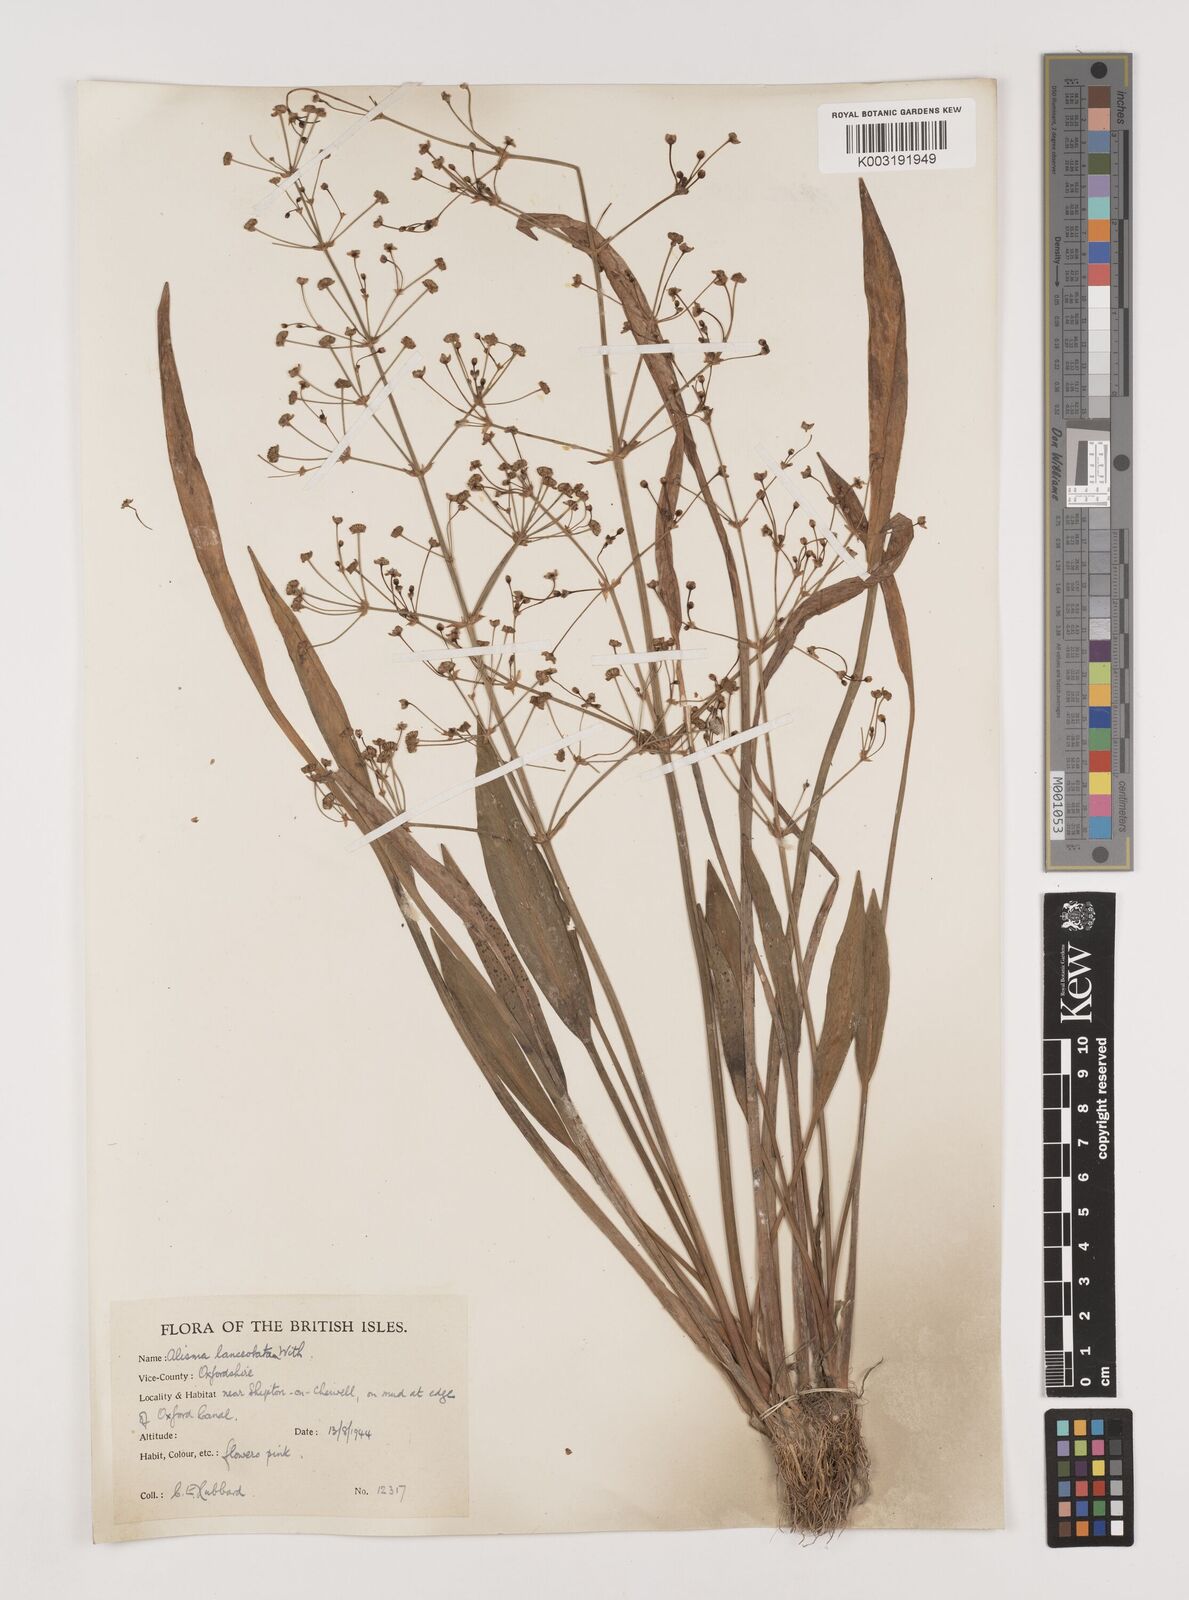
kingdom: Plantae
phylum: Tracheophyta
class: Liliopsida
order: Alismatales
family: Alismataceae
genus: Alisma
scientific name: Alisma lanceolatum
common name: Narrow-leaved water-plantain
